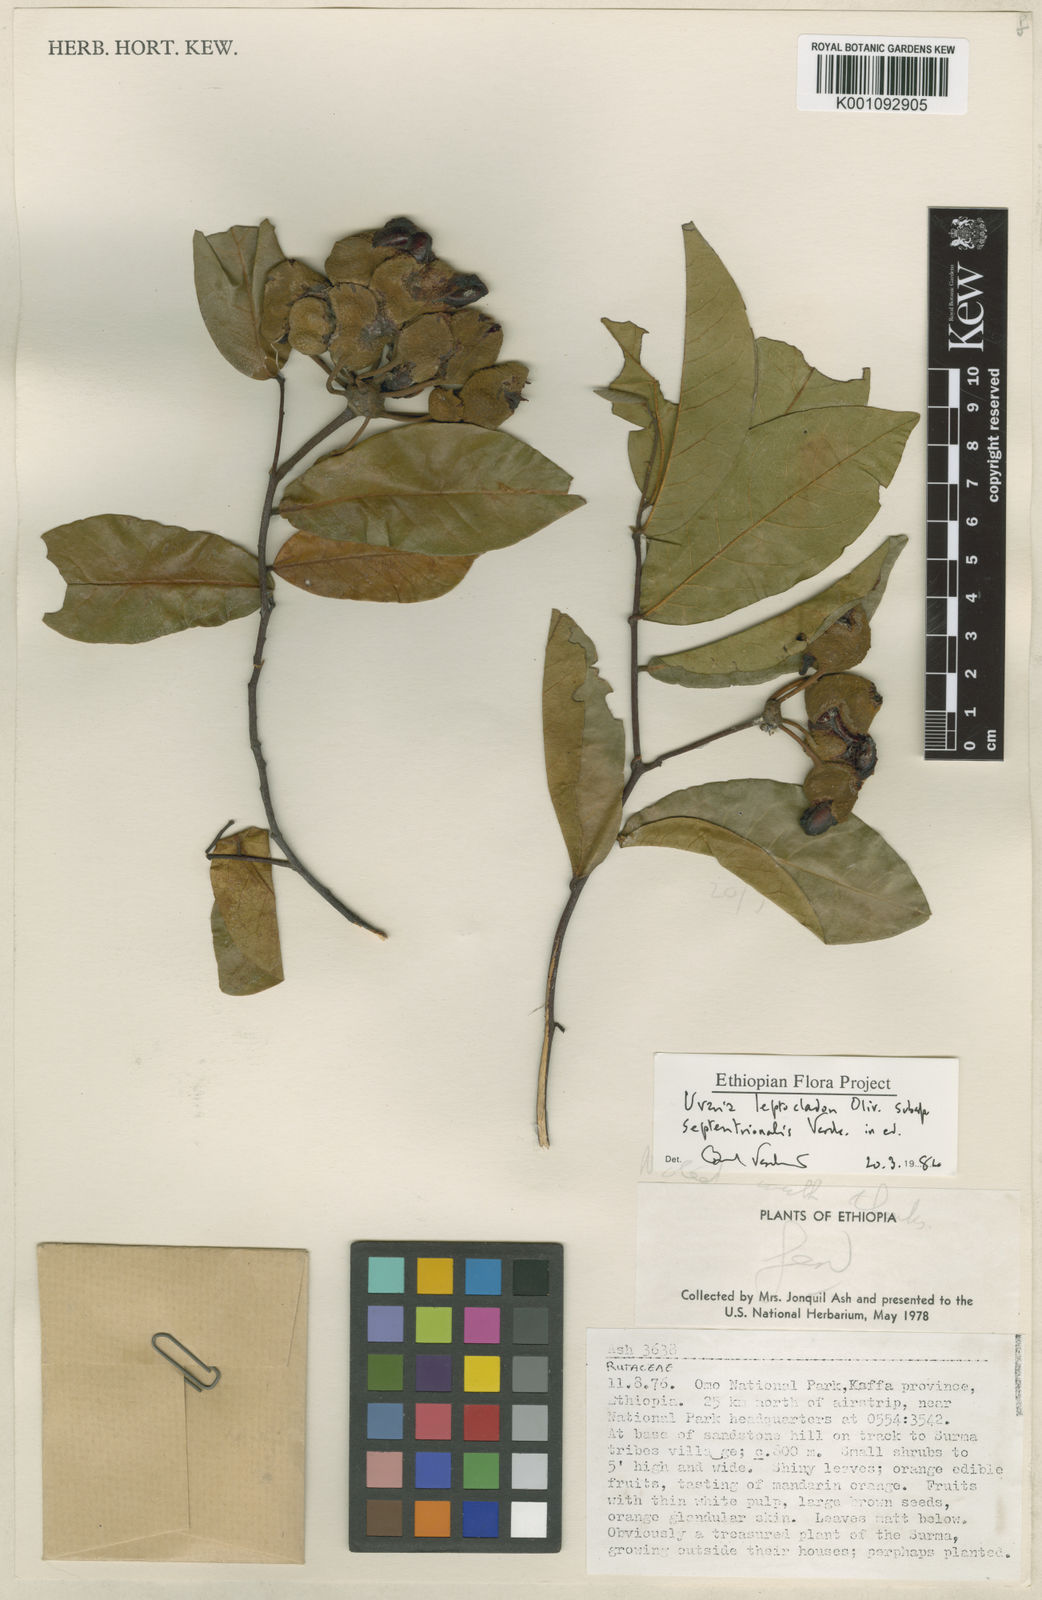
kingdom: Plantae
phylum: Tracheophyta
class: Magnoliopsida
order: Magnoliales
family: Annonaceae
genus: Uvaria
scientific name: Uvaria leptocladon
